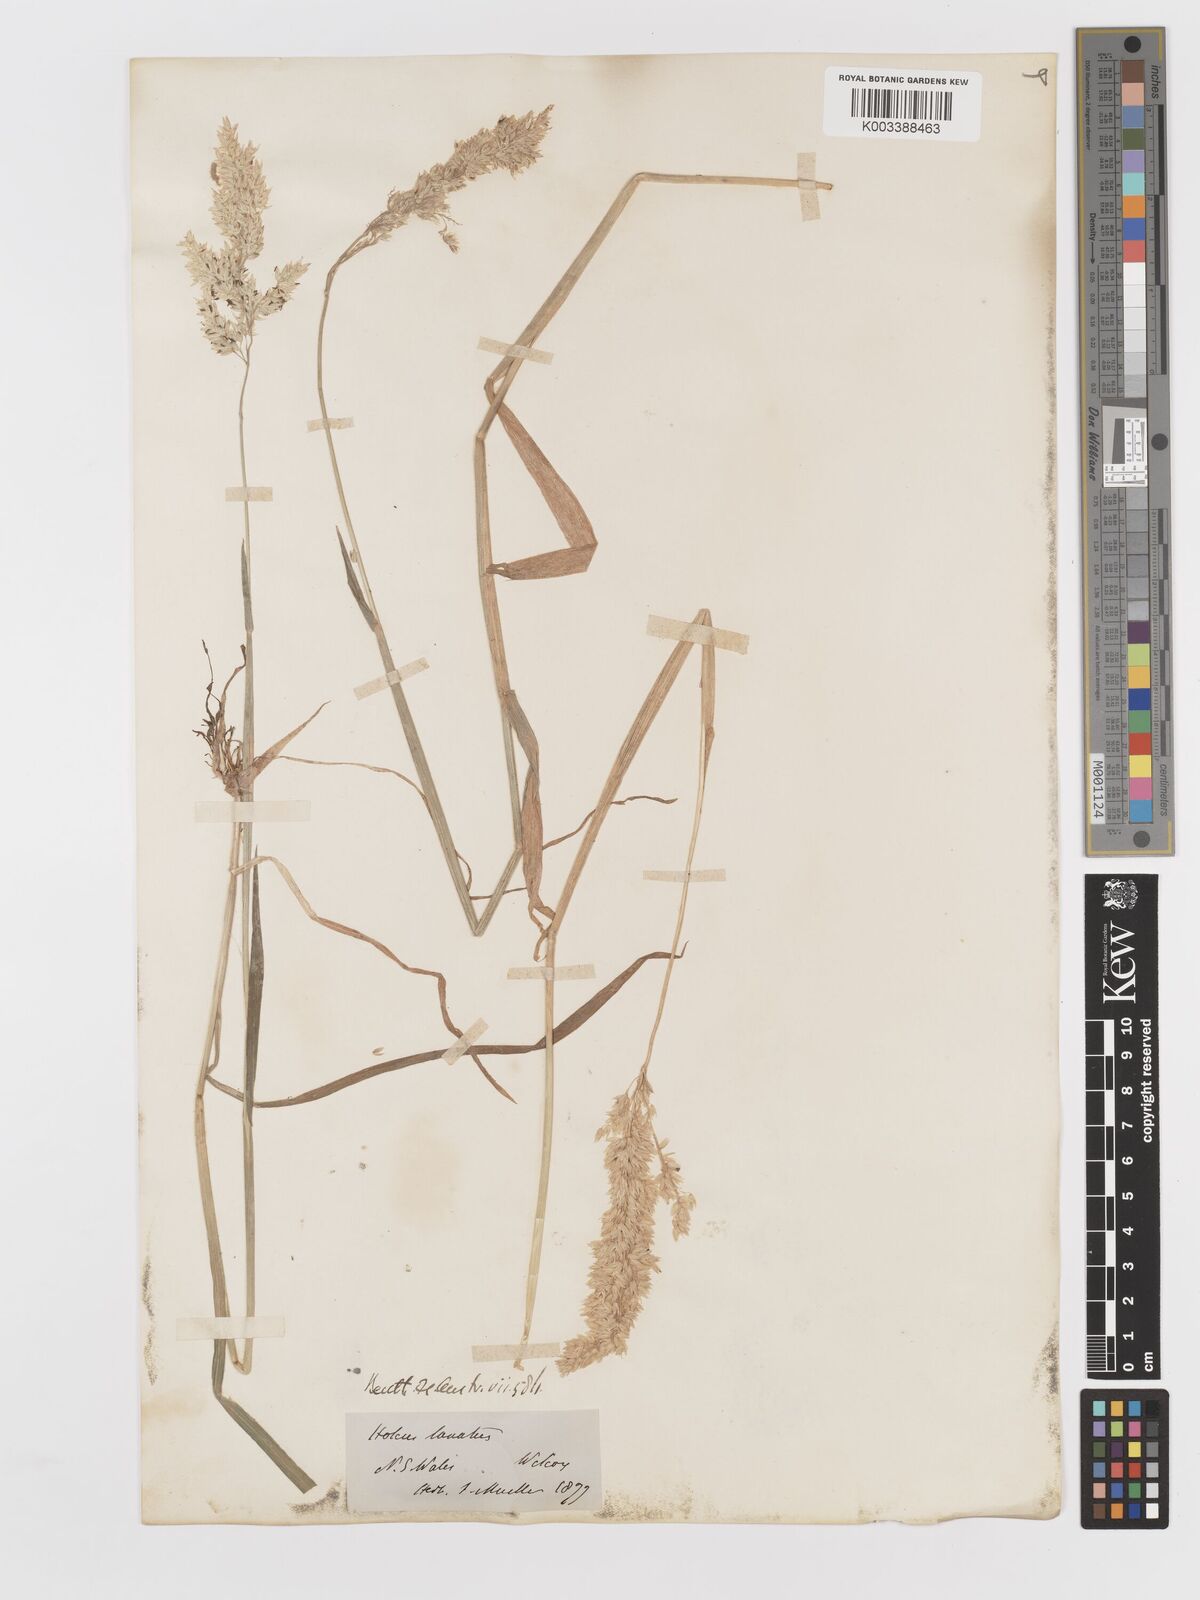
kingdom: Plantae
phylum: Tracheophyta
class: Liliopsida
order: Poales
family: Poaceae
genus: Holcus
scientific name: Holcus lanatus
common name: Yorkshire-fog
